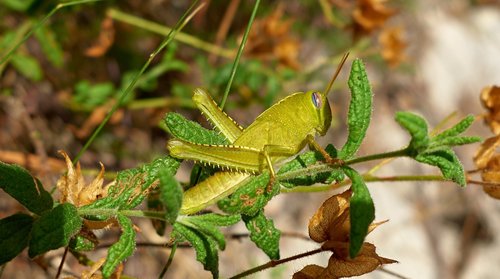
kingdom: Animalia
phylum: Arthropoda
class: Insecta
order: Orthoptera
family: Acrididae
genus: Anacridium
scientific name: Anacridium aegyptium
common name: Egyptian grasshopper
